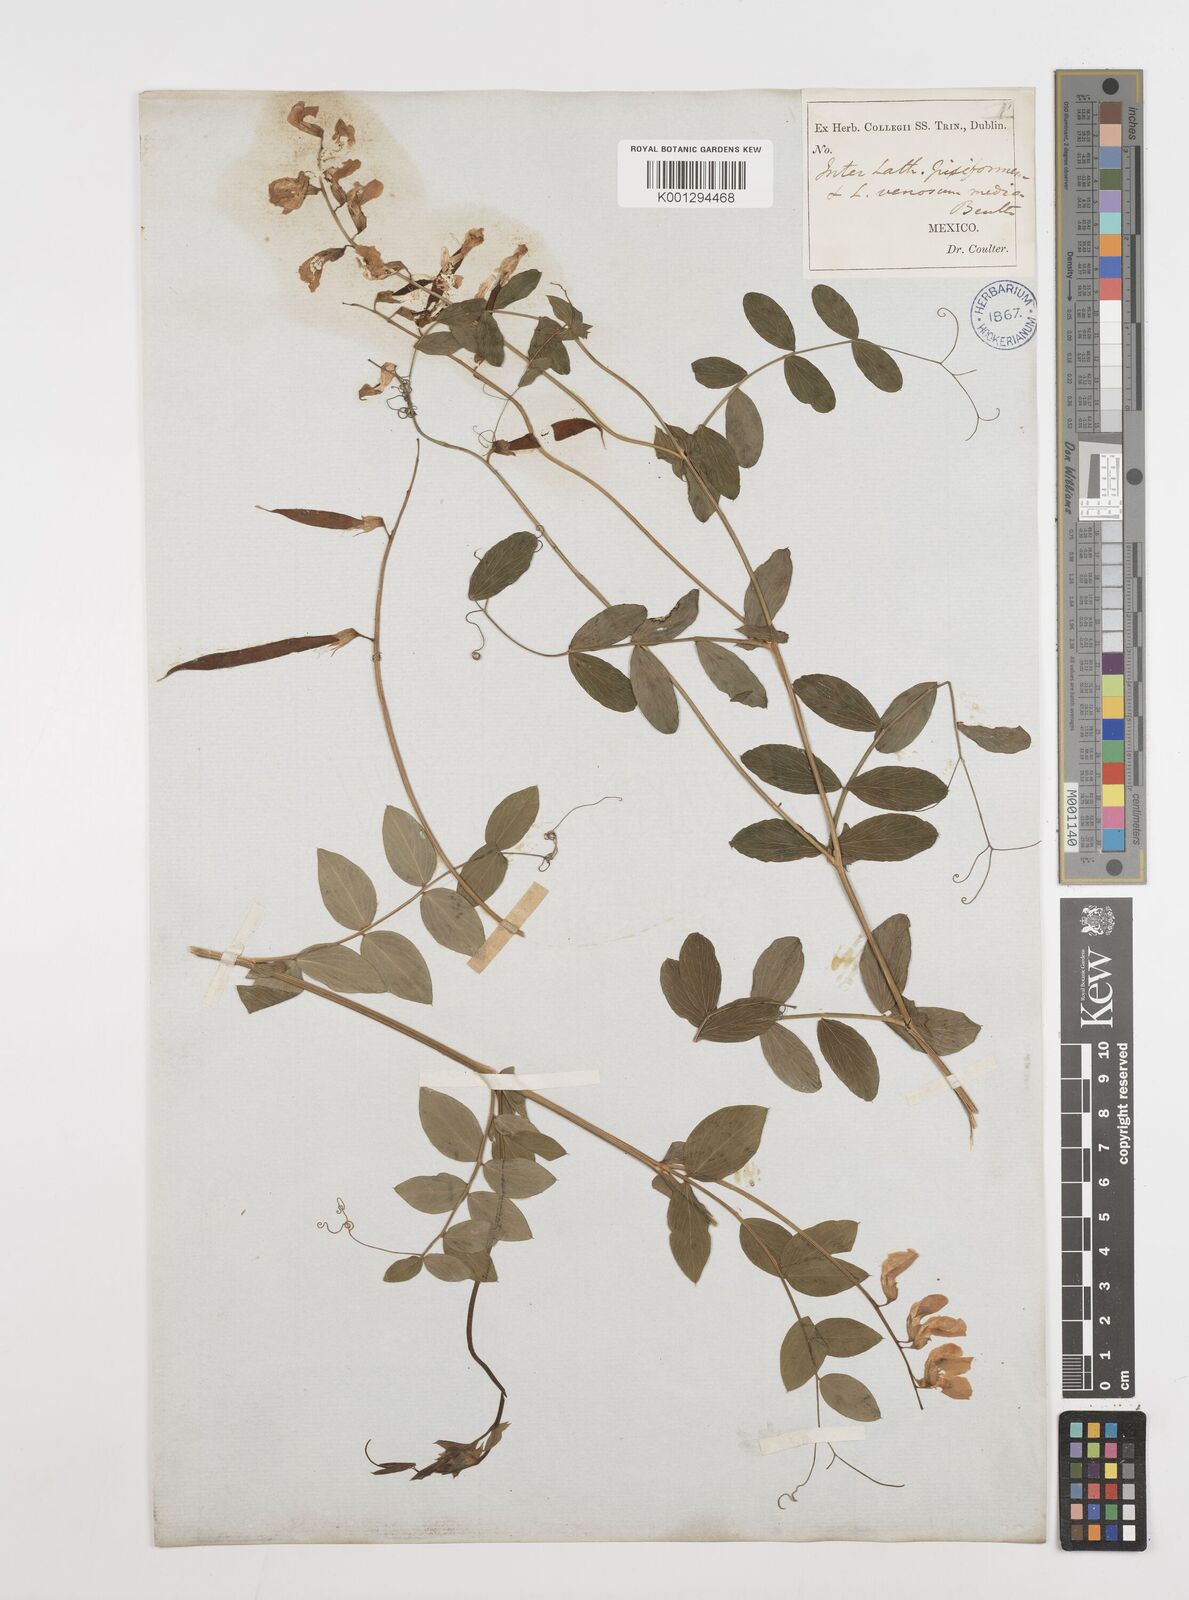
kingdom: Plantae
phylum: Tracheophyta
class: Magnoliopsida
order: Fabales
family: Fabaceae
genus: Lathyrus
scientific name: Lathyrus japonicus
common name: Sea pea
